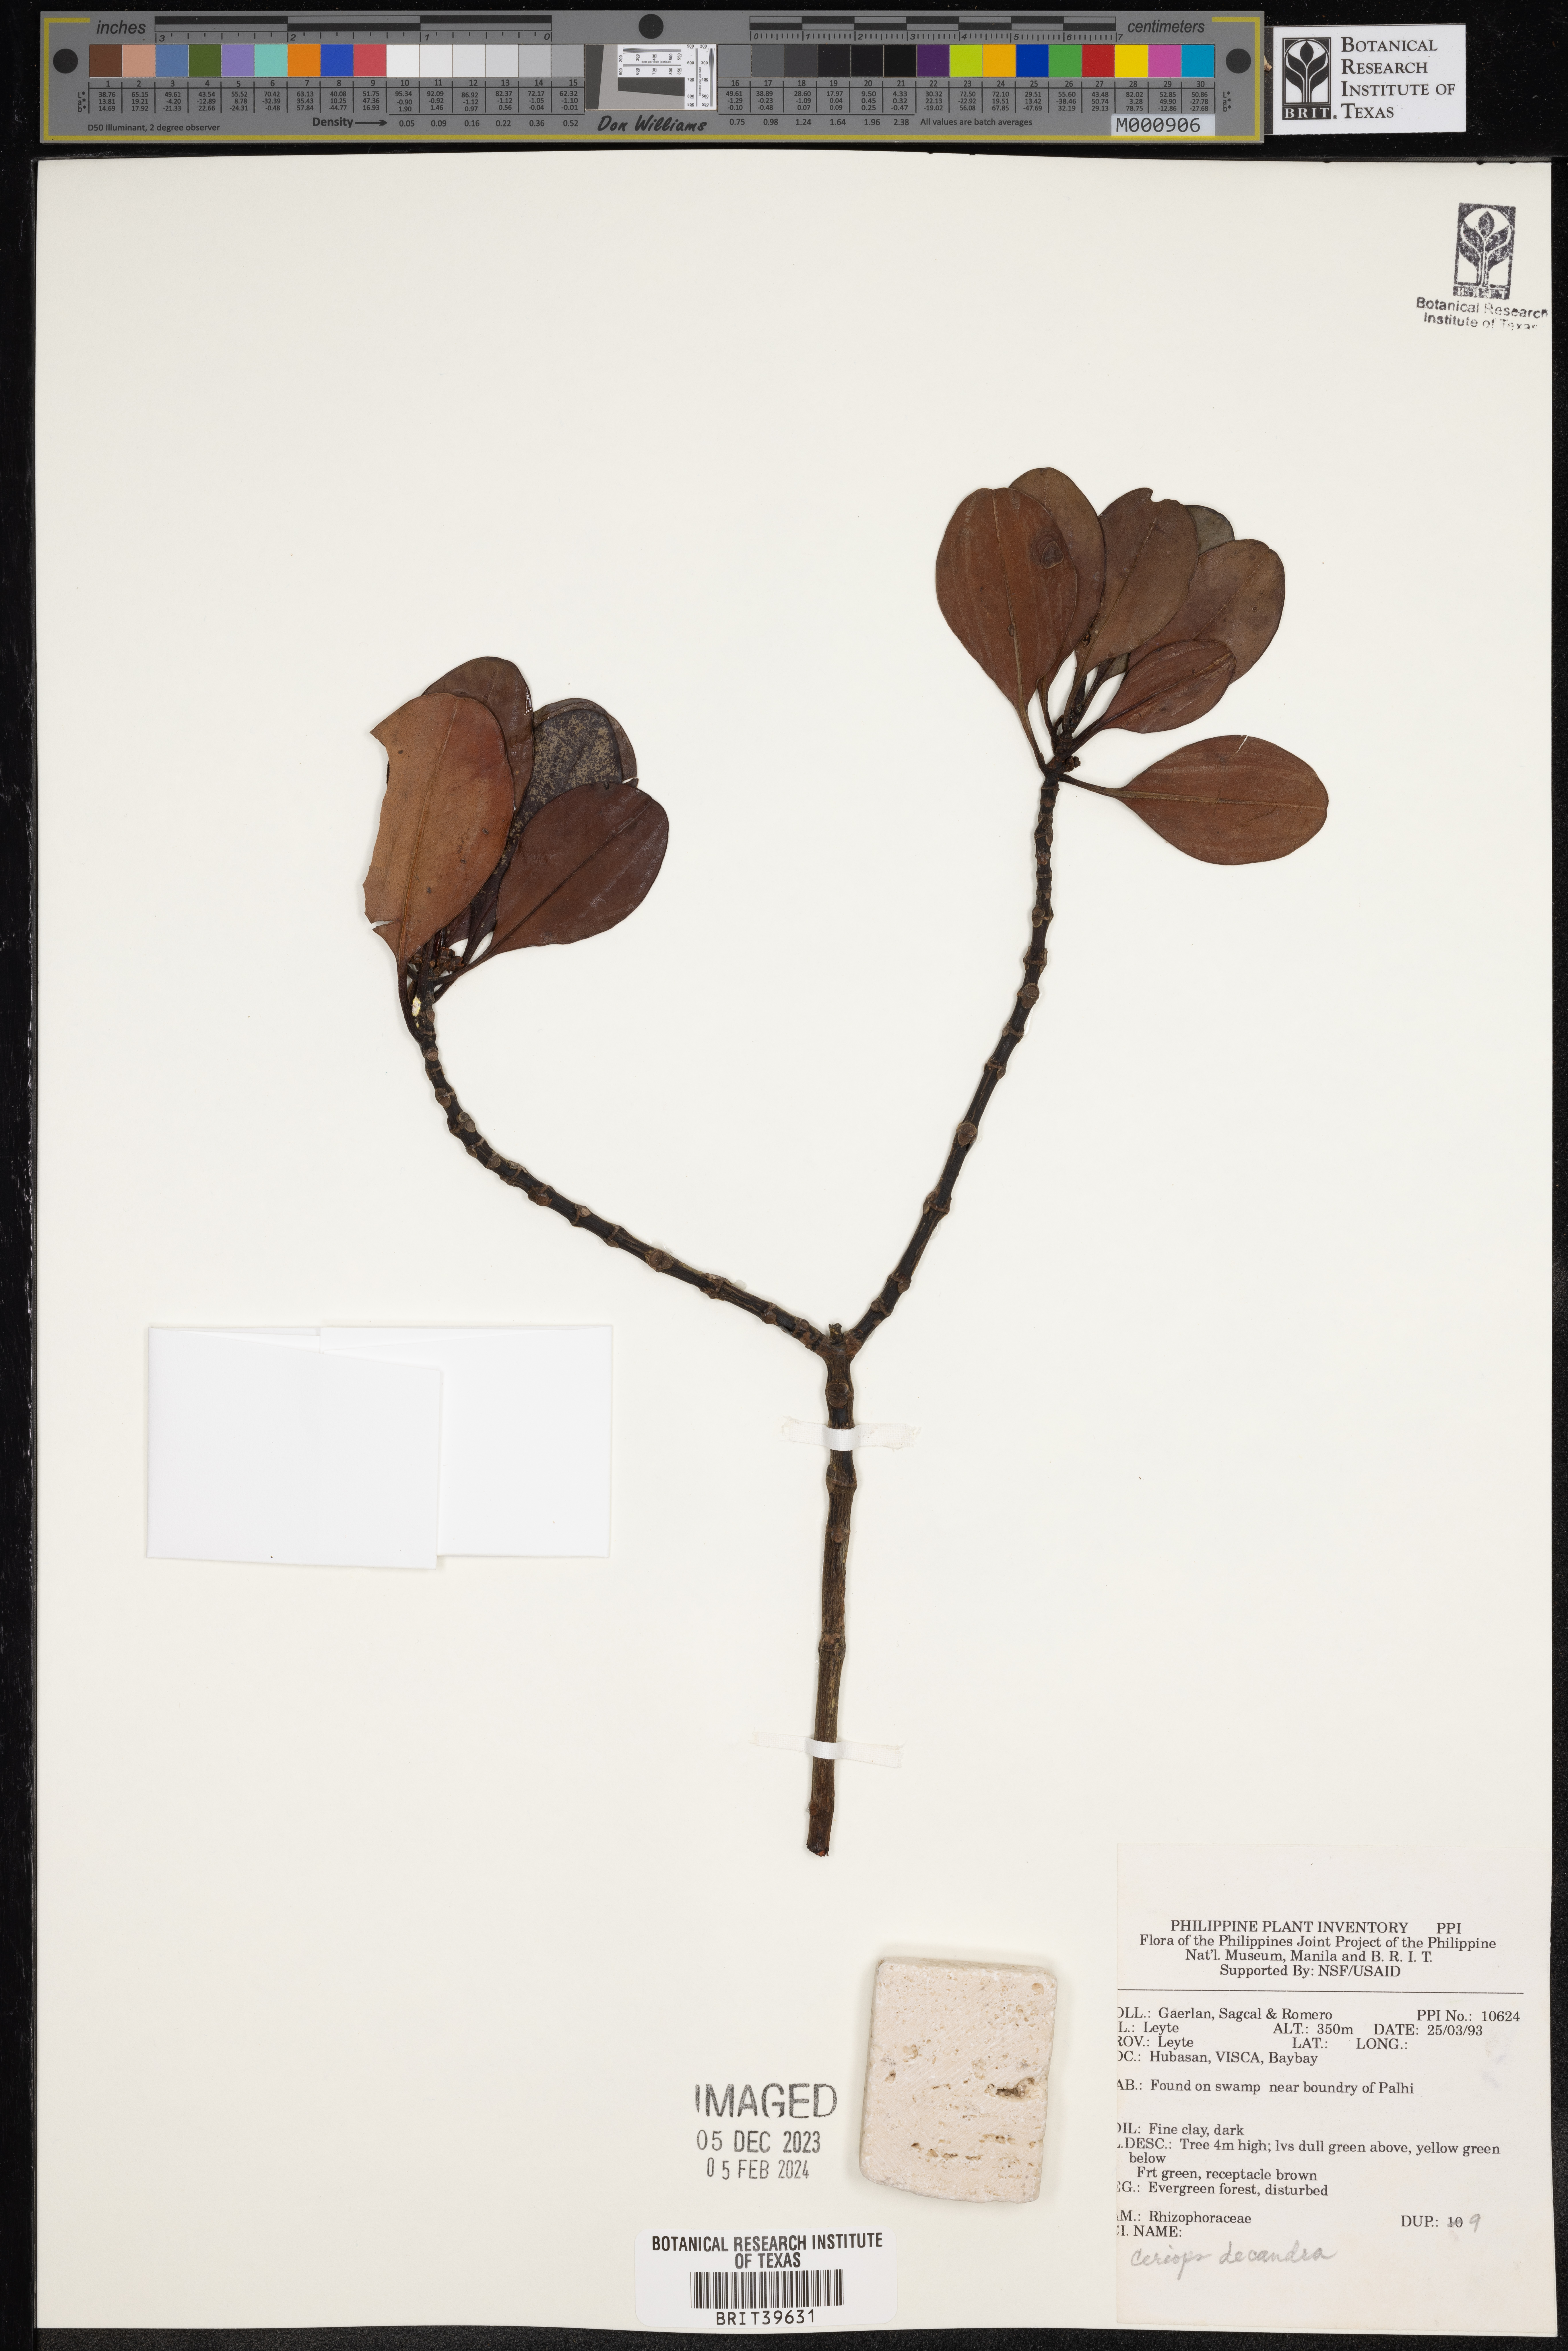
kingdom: Plantae
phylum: Tracheophyta
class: Magnoliopsida
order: Malpighiales
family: Rhizophoraceae
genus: Ceriops
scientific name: Ceriops decandra
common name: Flat-leaf spurred mangrove
